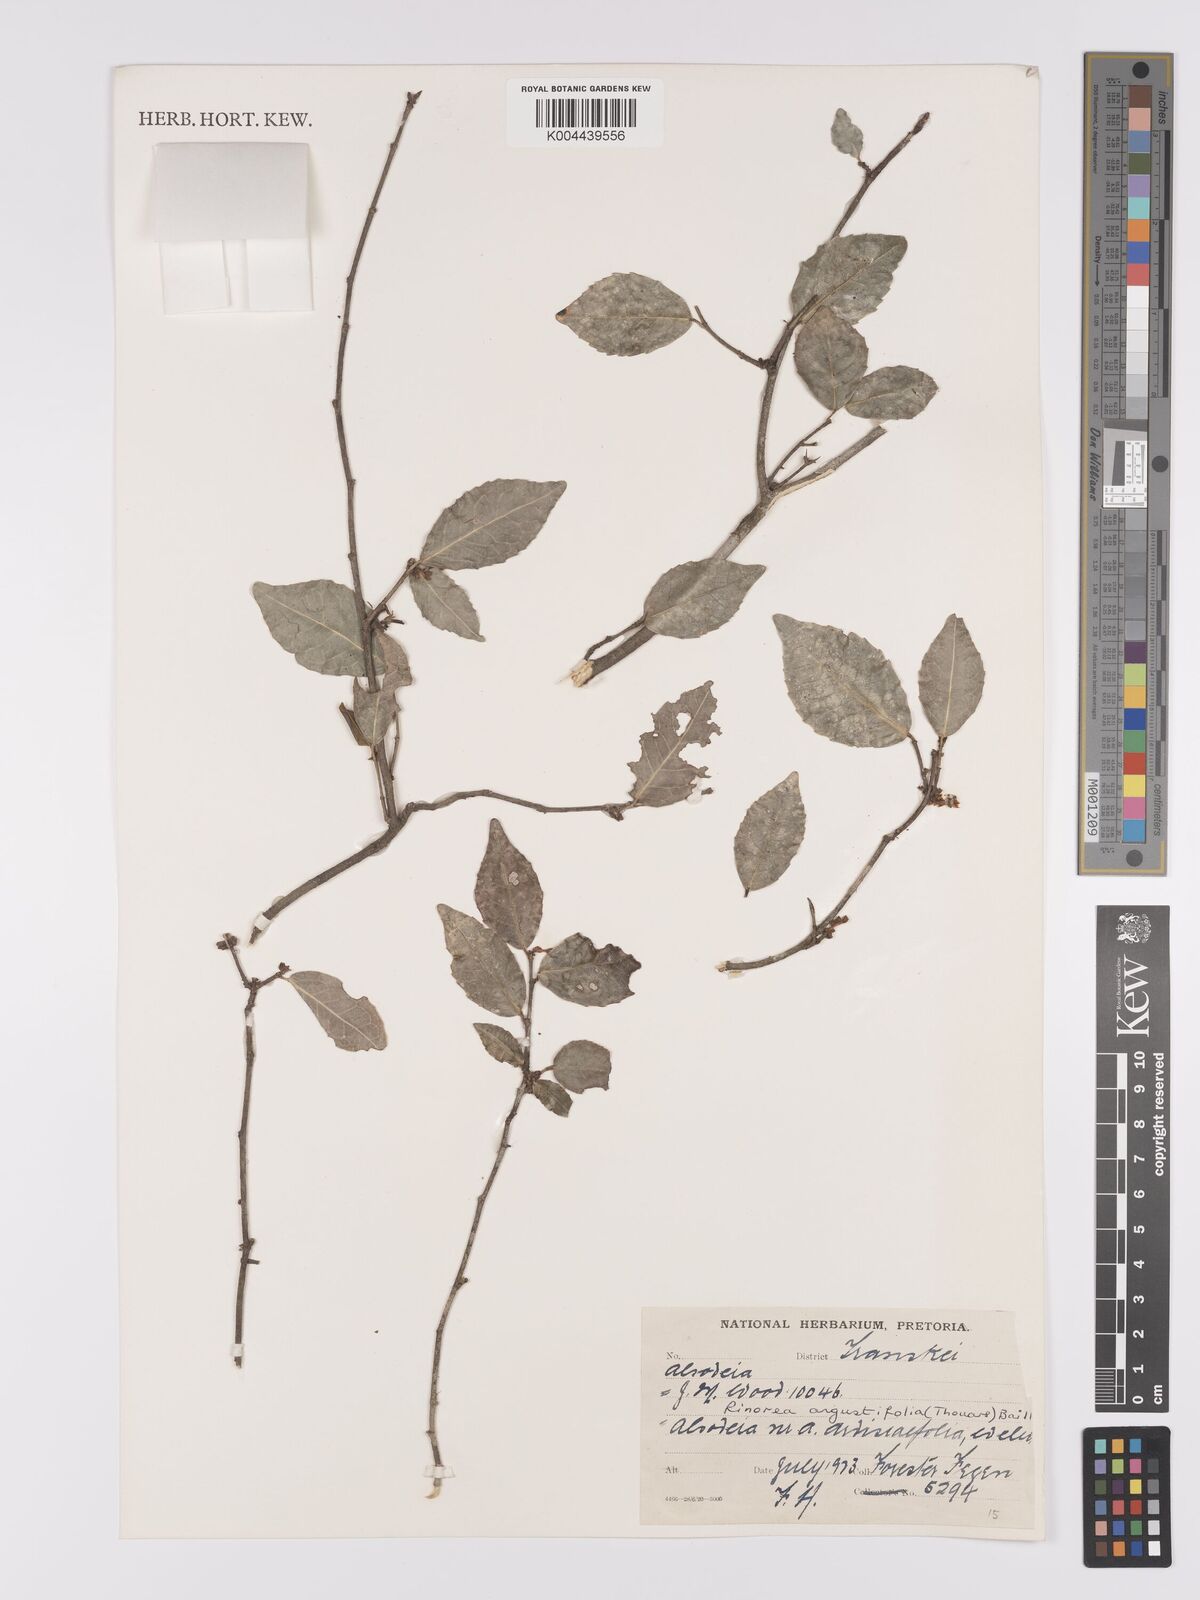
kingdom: Plantae
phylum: Tracheophyta
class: Magnoliopsida
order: Malpighiales
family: Violaceae
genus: Rinorea
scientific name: Rinorea angustifolia
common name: White violet-bush
